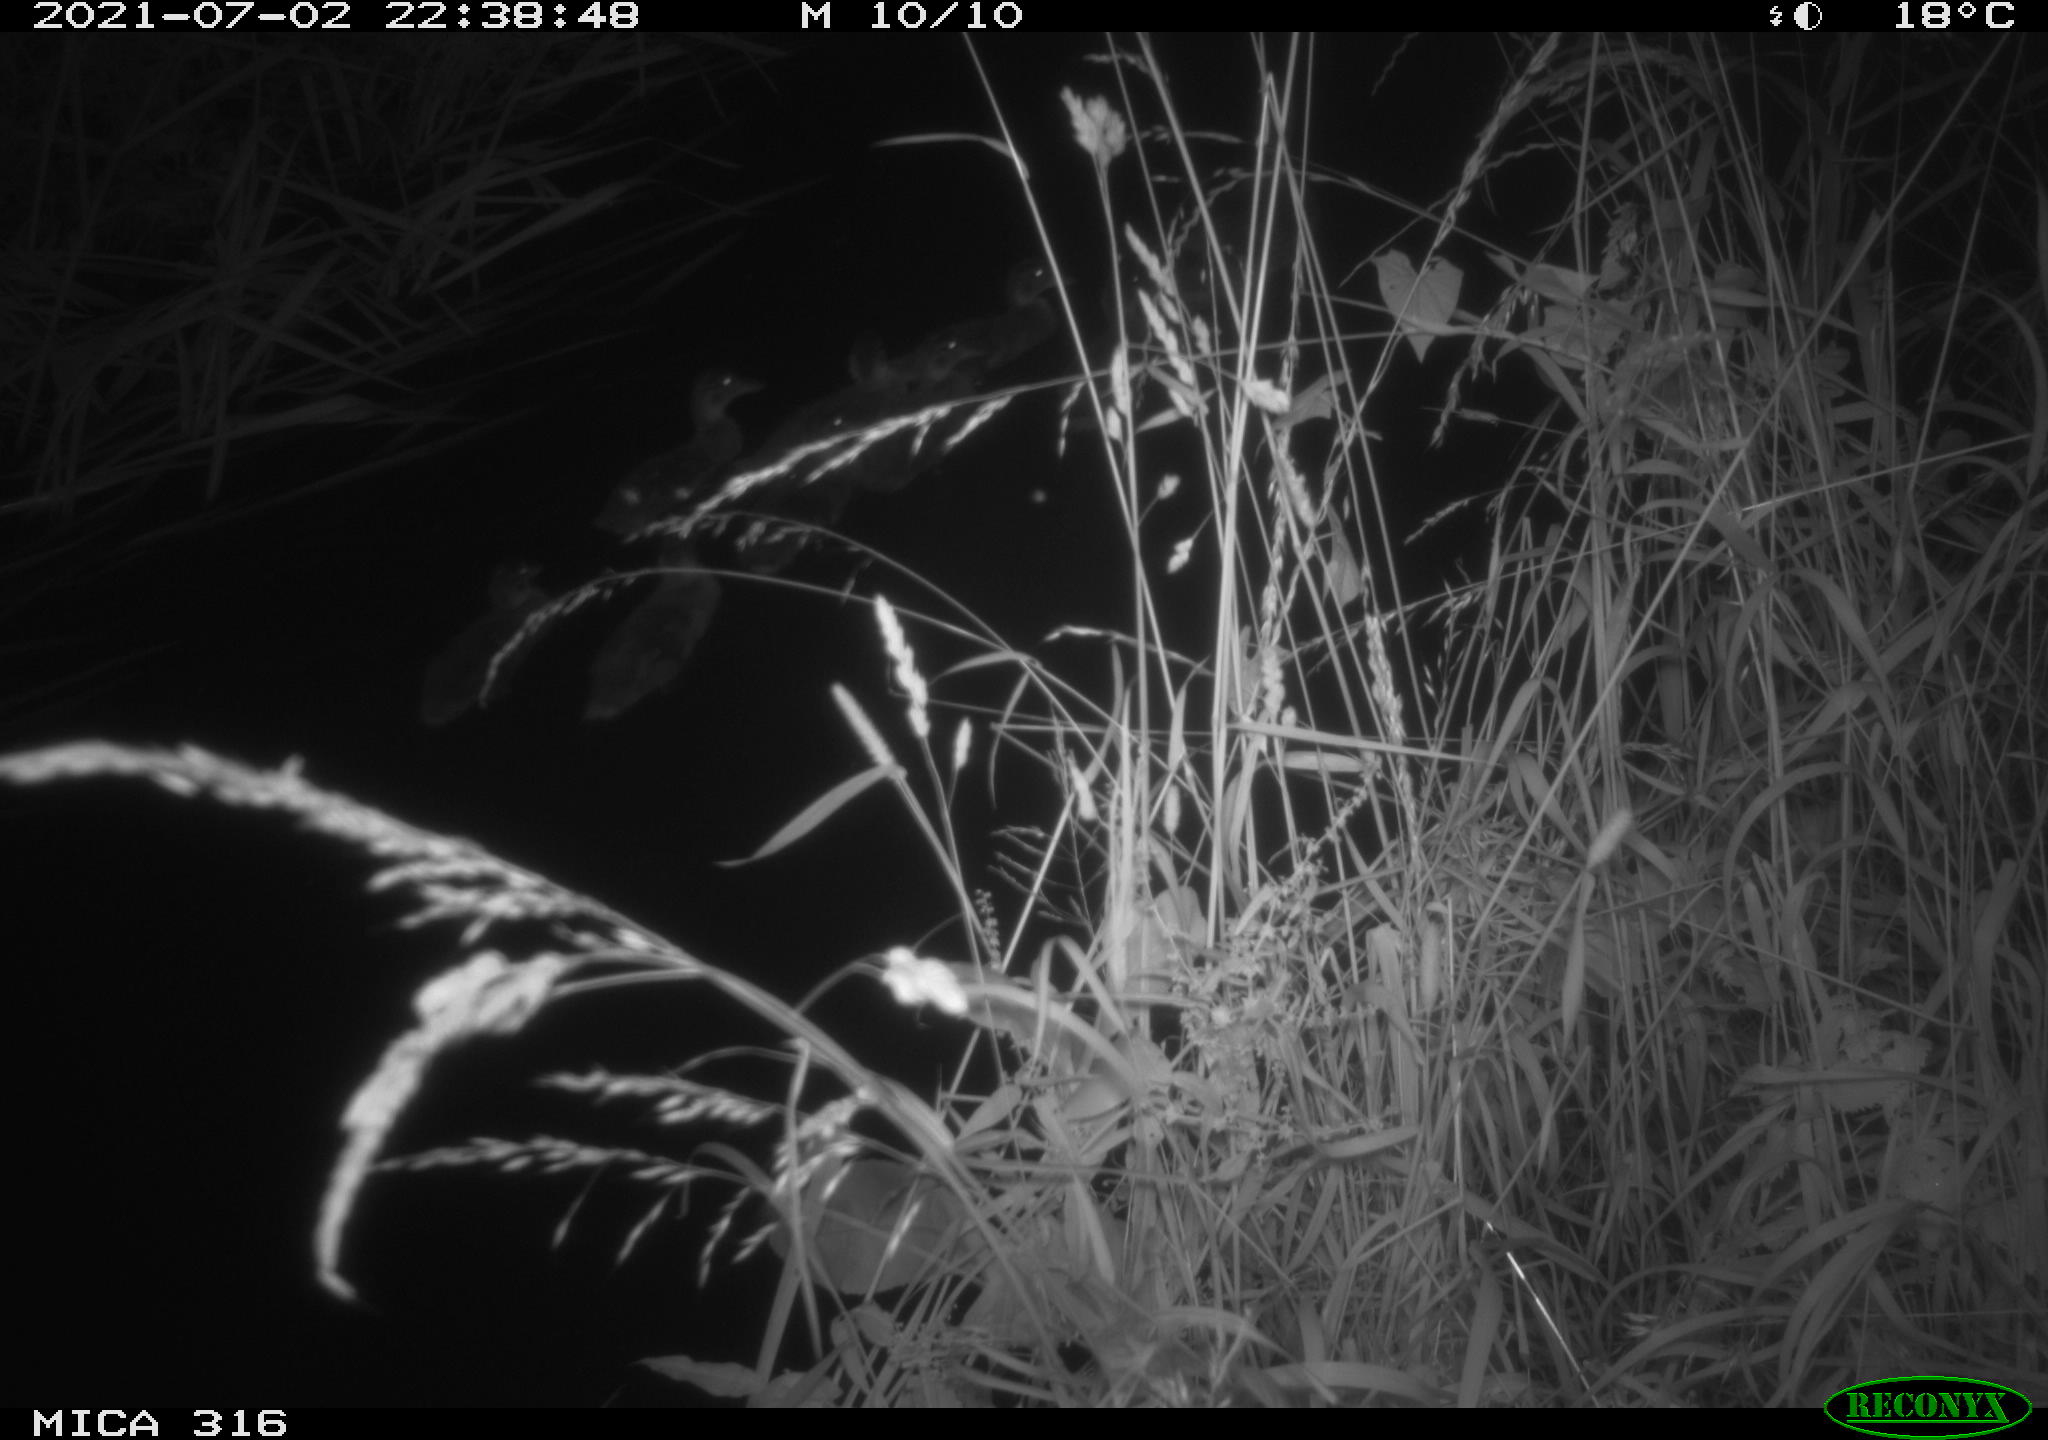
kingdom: Animalia
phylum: Chordata
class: Aves
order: Anseriformes
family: Anatidae
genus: Anas
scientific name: Anas platyrhynchos
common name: Mallard
